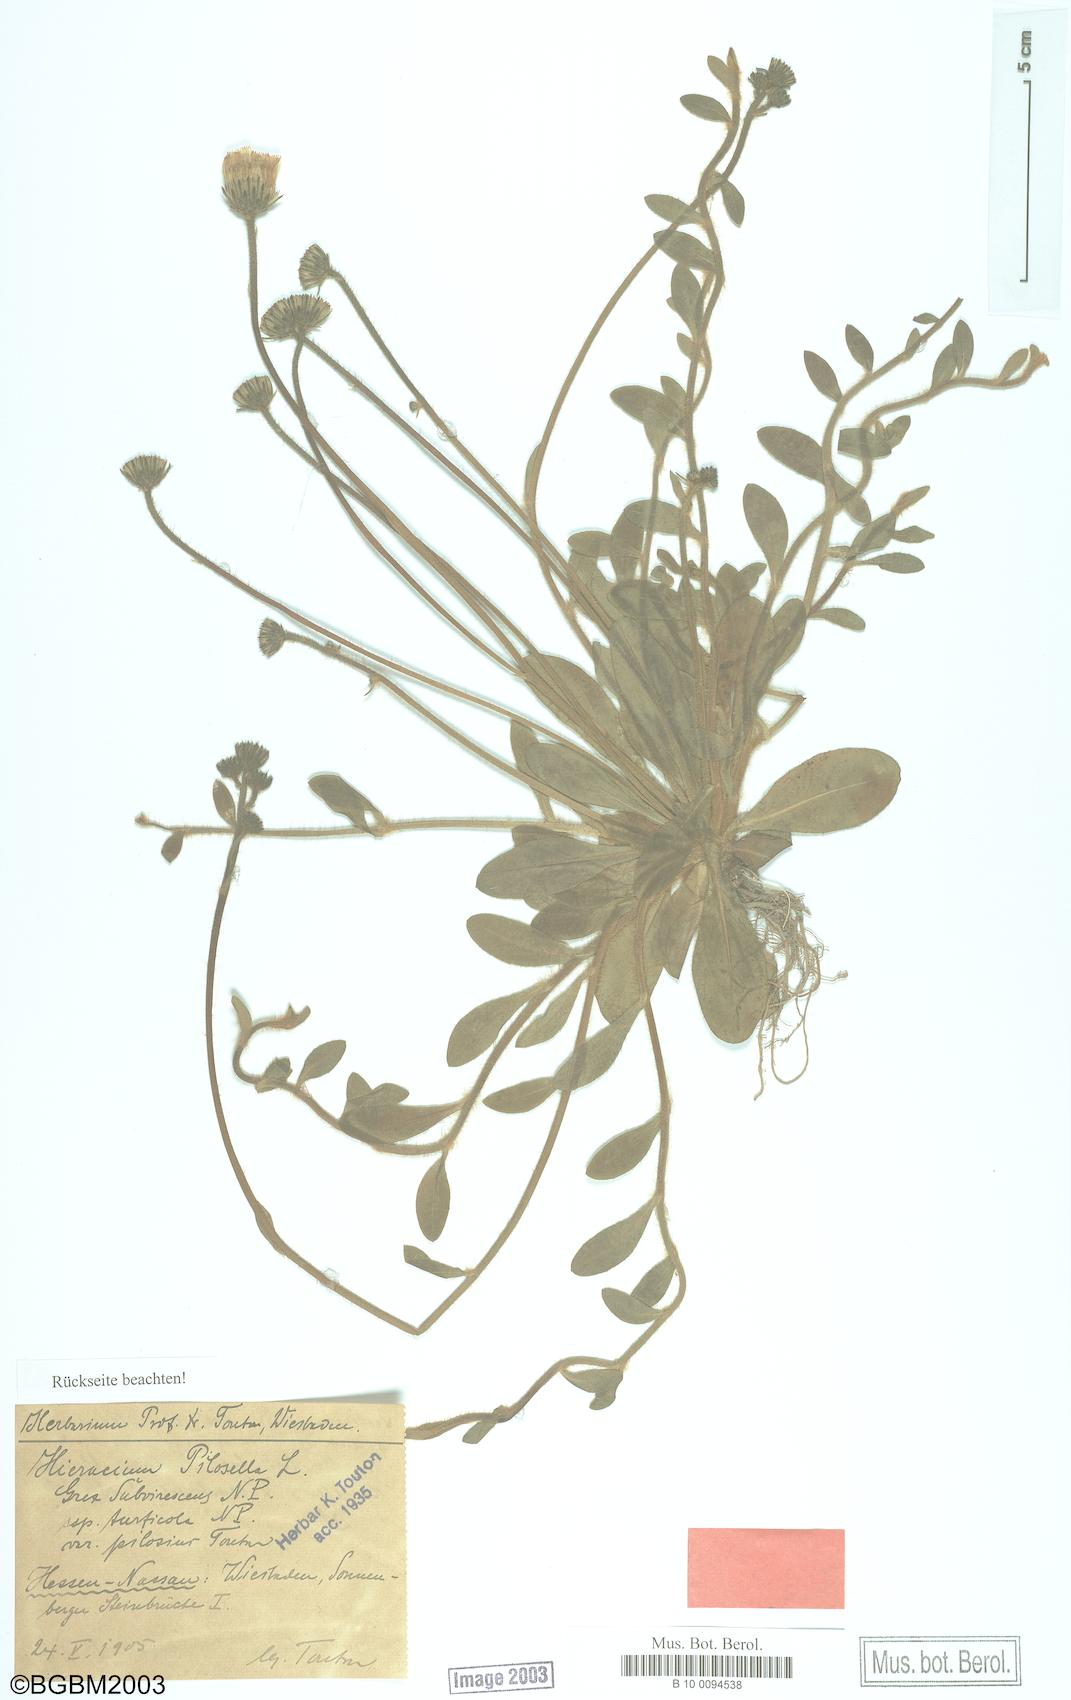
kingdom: Plantae
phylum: Tracheophyta
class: Magnoliopsida
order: Asterales
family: Asteraceae
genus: Pilosella
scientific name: Pilosella officinarum
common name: Mouse-ear hawkweed
